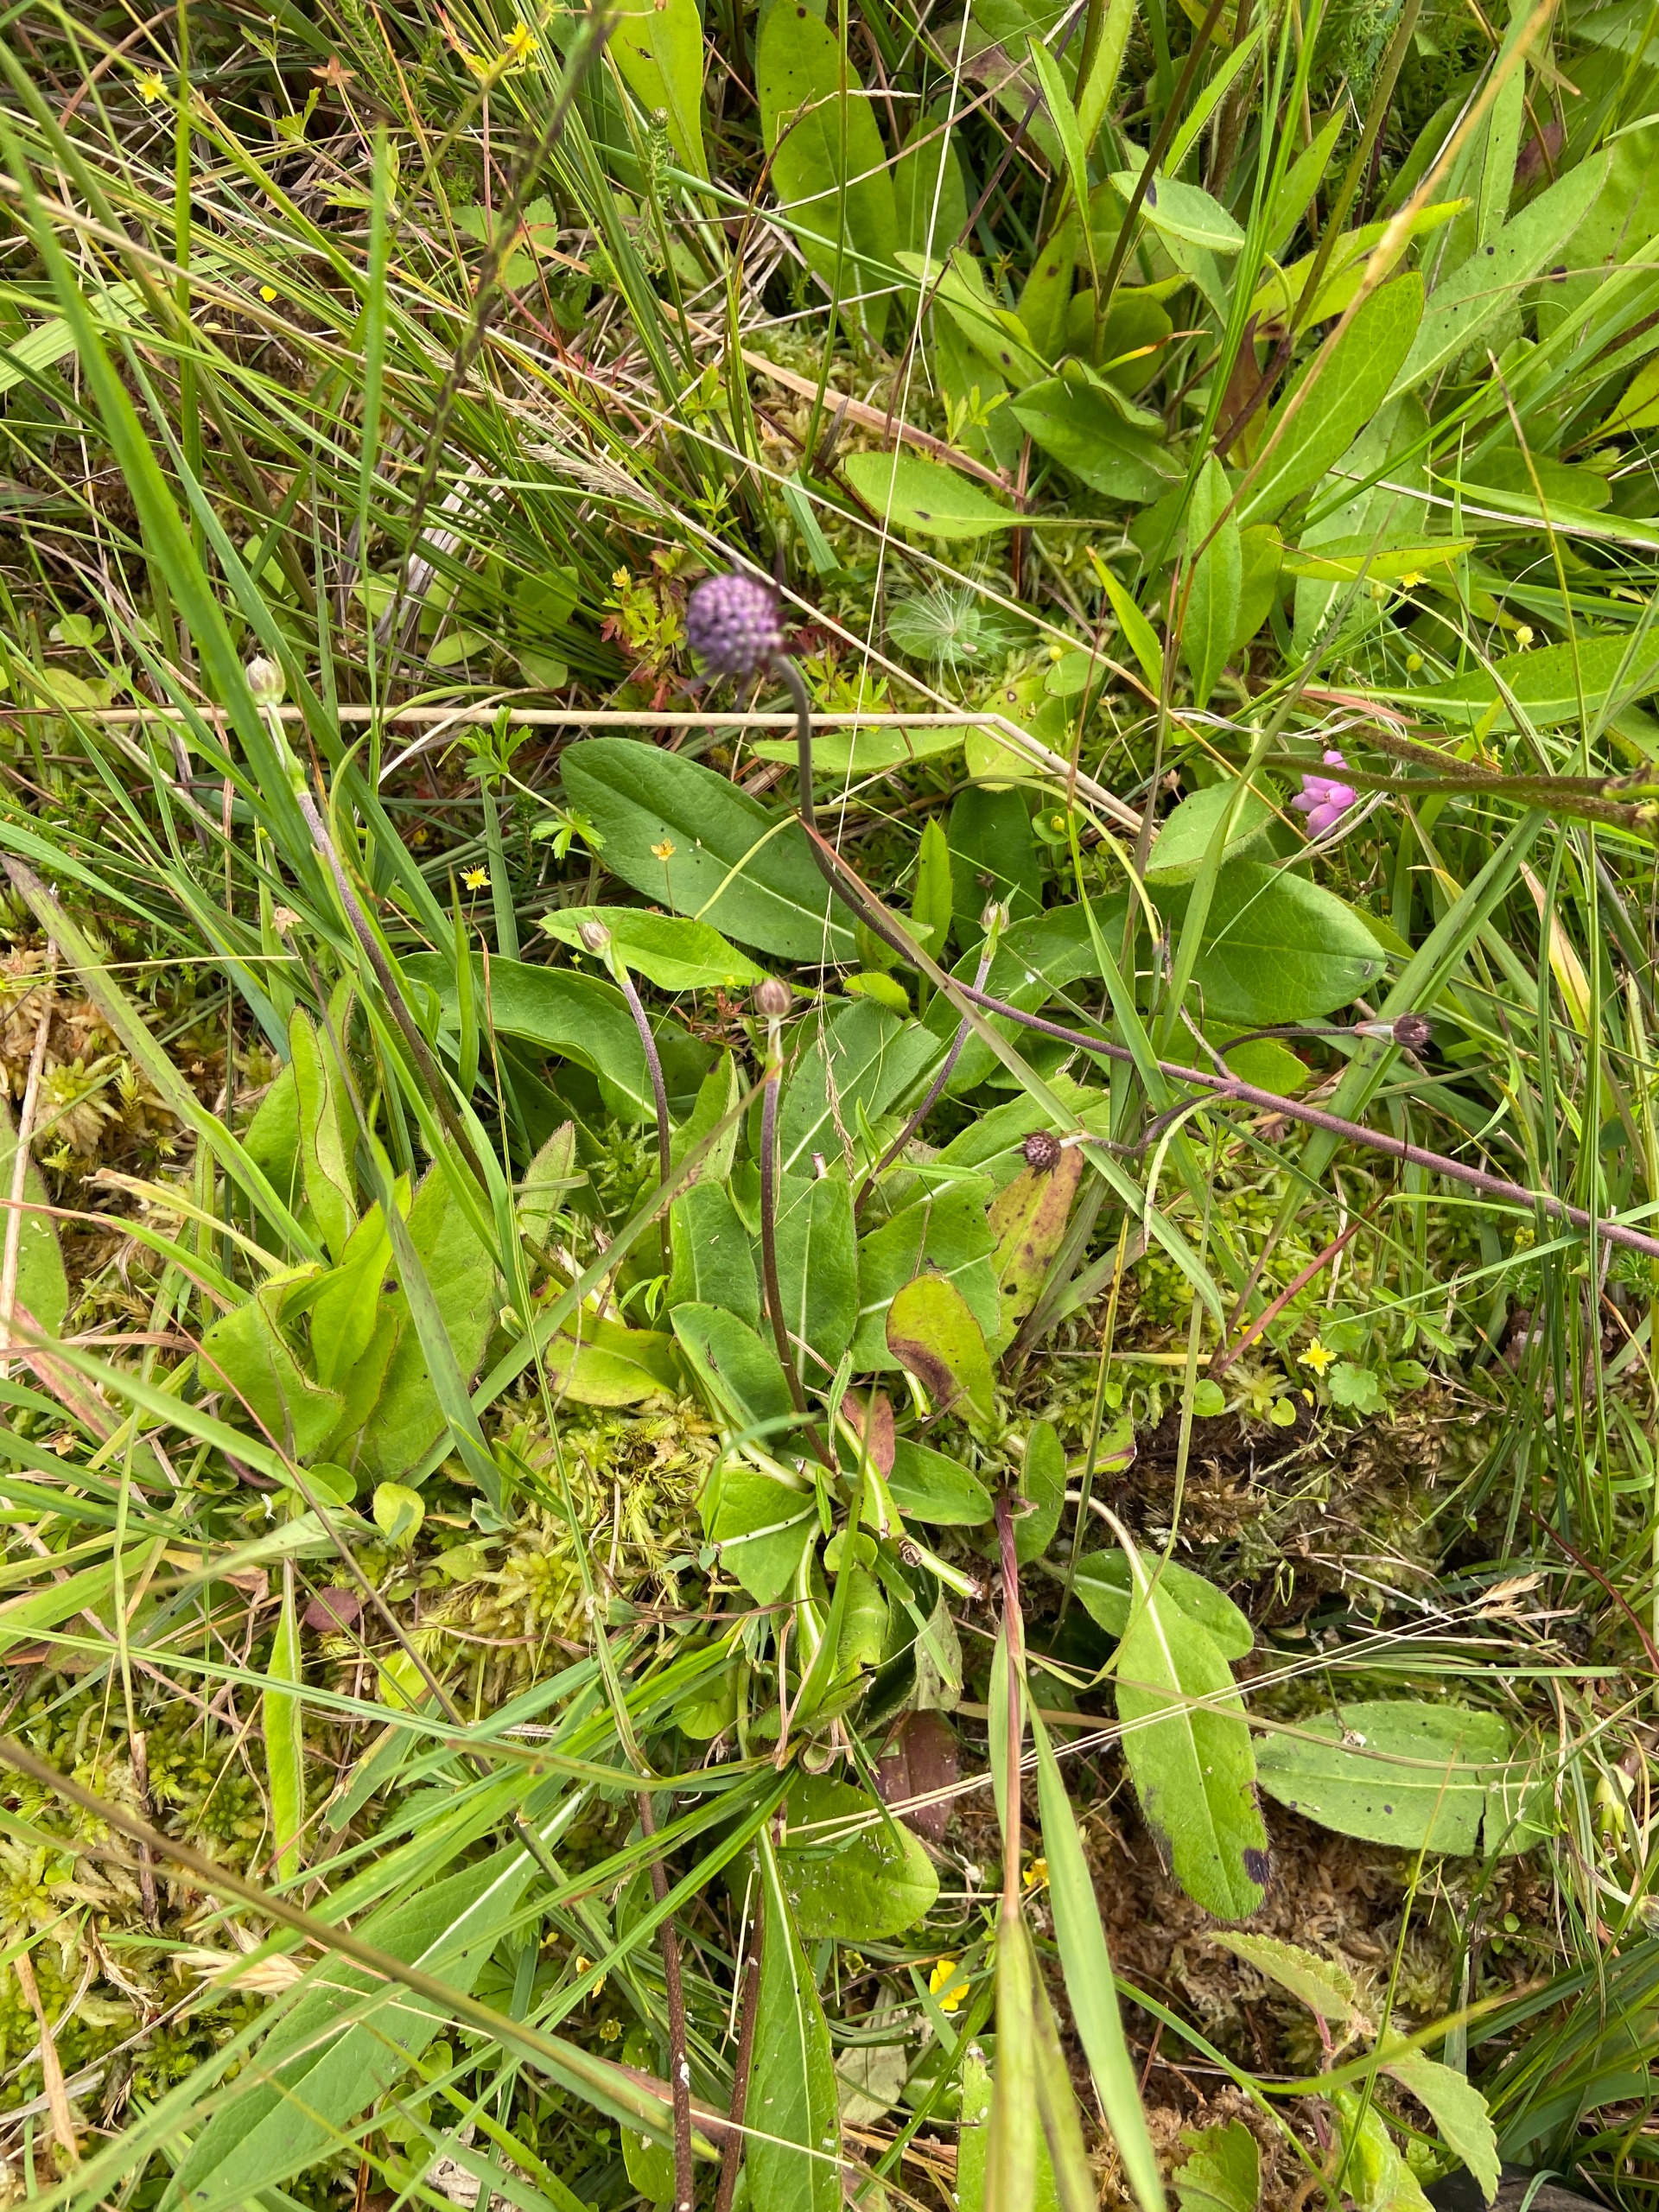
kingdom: Plantae
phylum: Tracheophyta
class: Magnoliopsida
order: Dipsacales
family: Caprifoliaceae
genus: Succisa
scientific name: Succisa pratensis
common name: Djævelsbid
